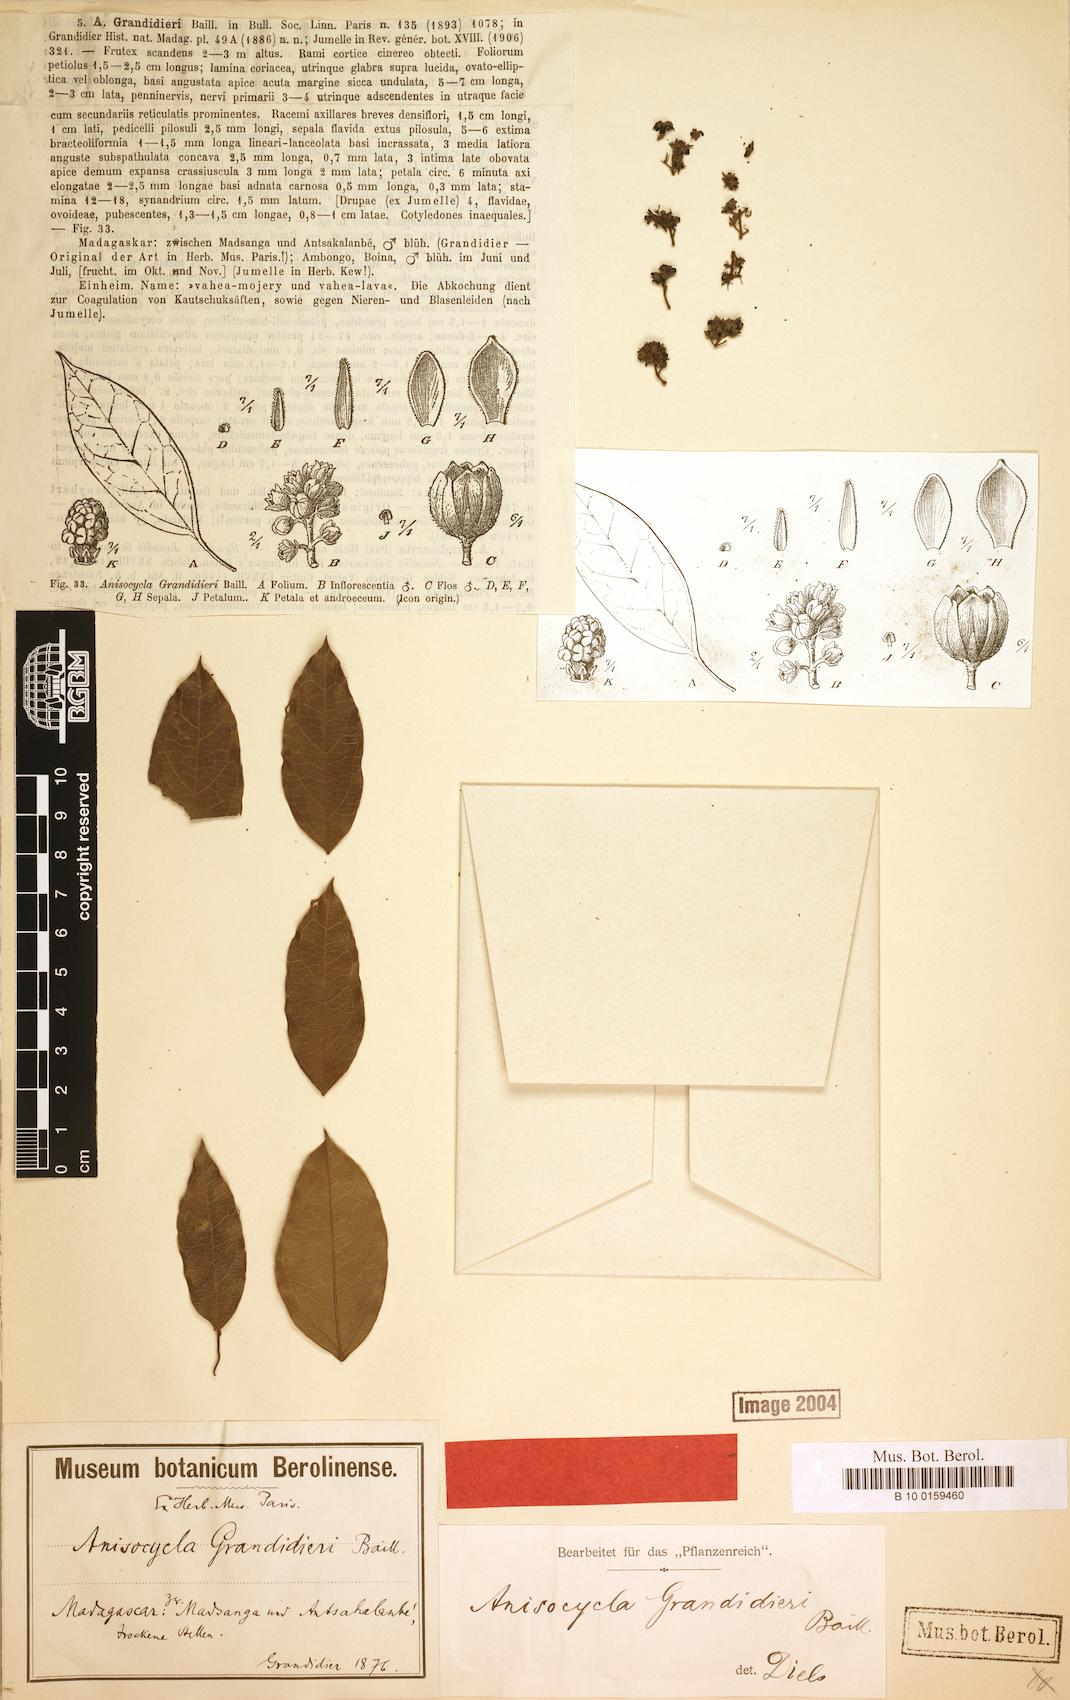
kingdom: Plantae
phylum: Tracheophyta
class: Magnoliopsida
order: Ranunculales
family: Menispermaceae
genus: Anisocycla
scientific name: Anisocycla grandidieri
